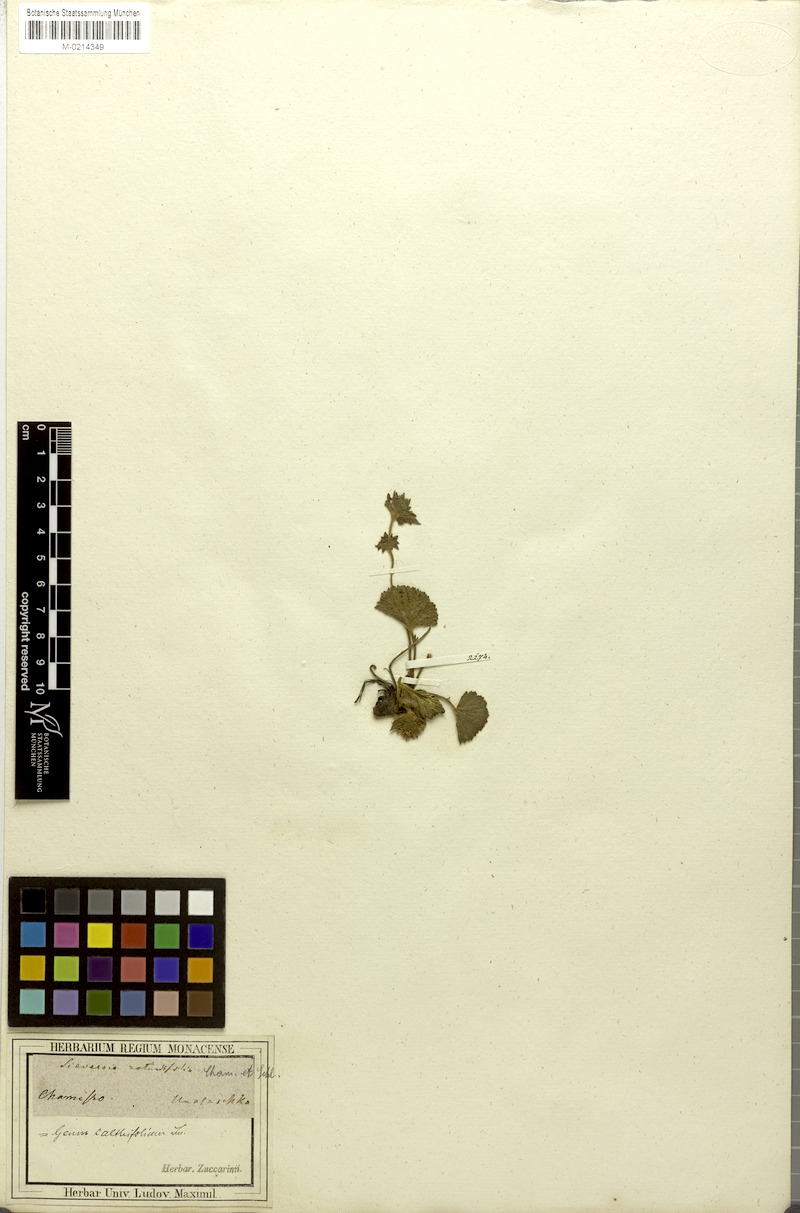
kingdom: Plantae
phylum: Tracheophyta
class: Magnoliopsida
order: Rosales
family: Rosaceae
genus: Geum
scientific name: Geum calthifolium
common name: Caltha-leaved avens
